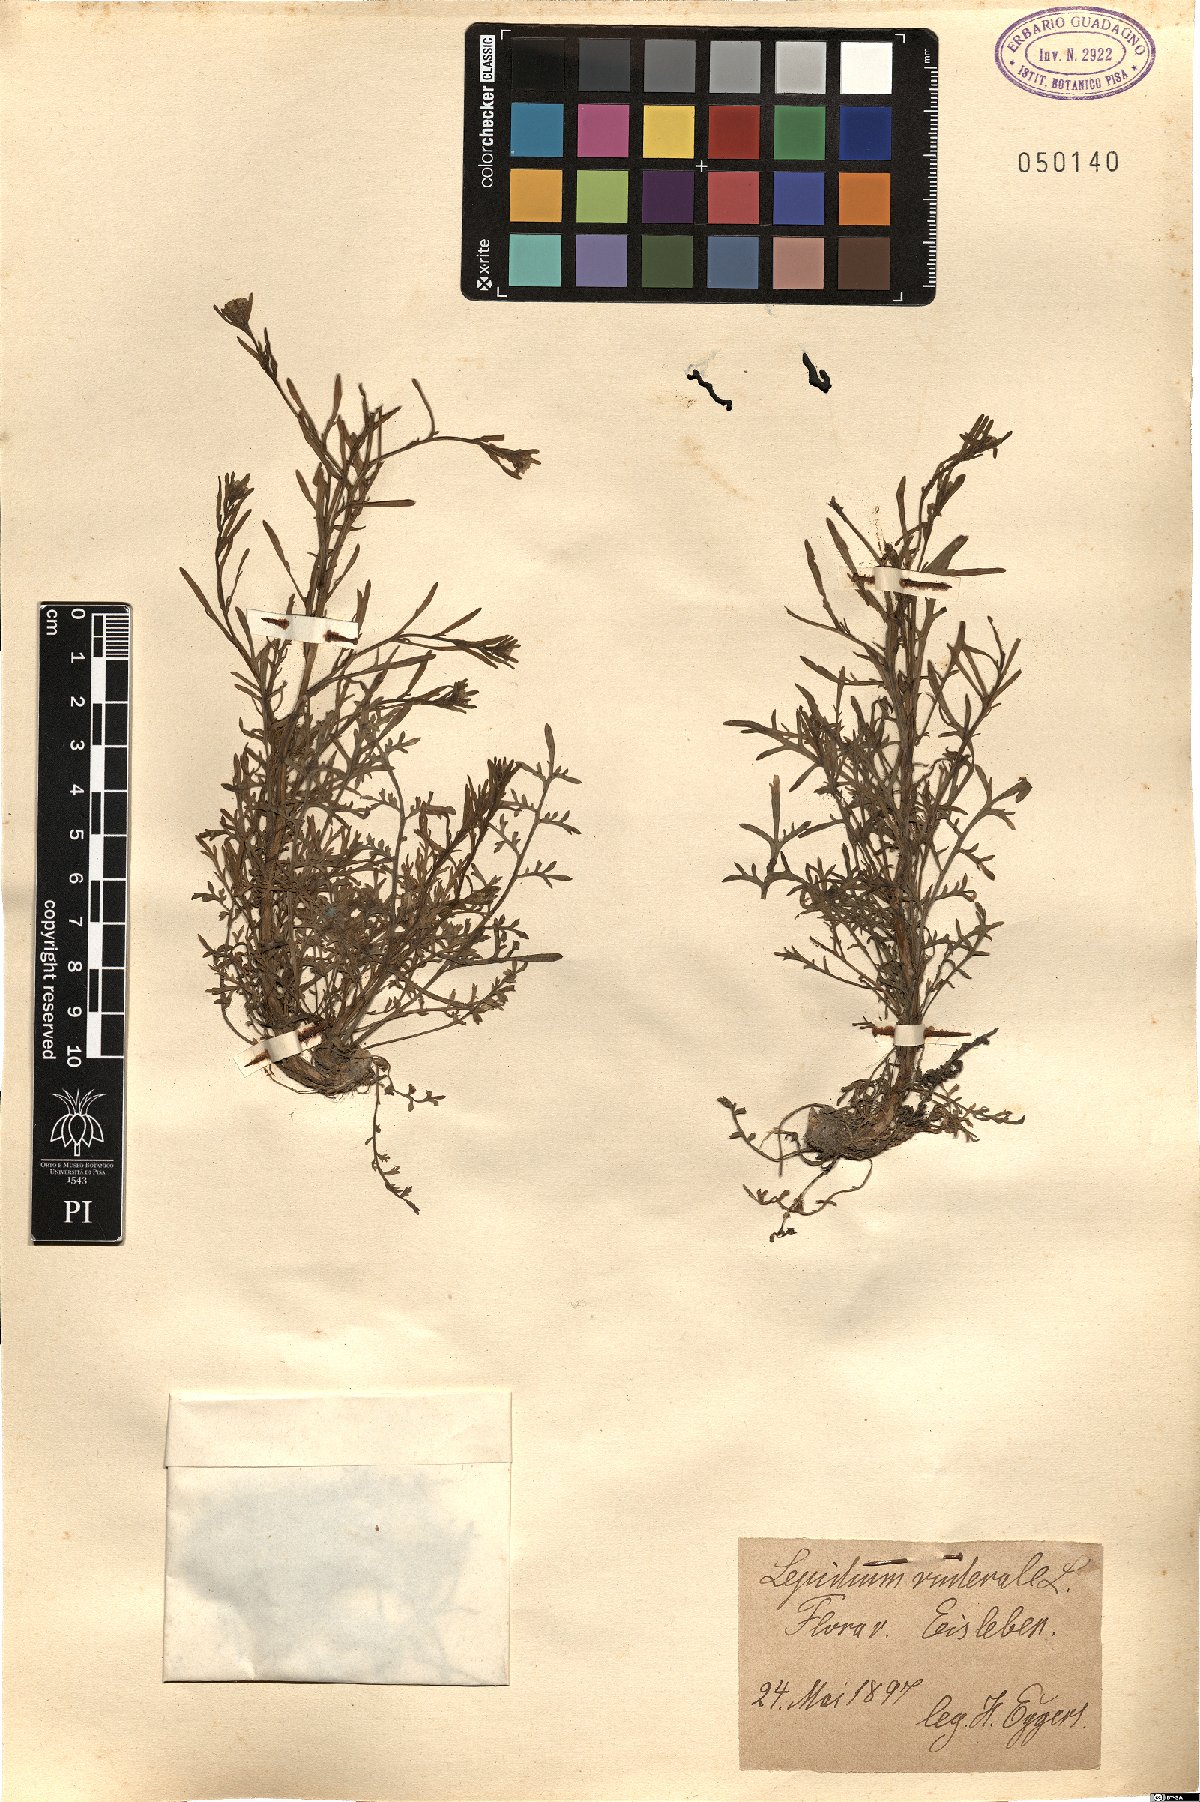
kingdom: Plantae
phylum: Tracheophyta
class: Magnoliopsida
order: Brassicales
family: Brassicaceae
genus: Lepidium
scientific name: Lepidium ruderale
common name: Narrow-leaved pepperwort
